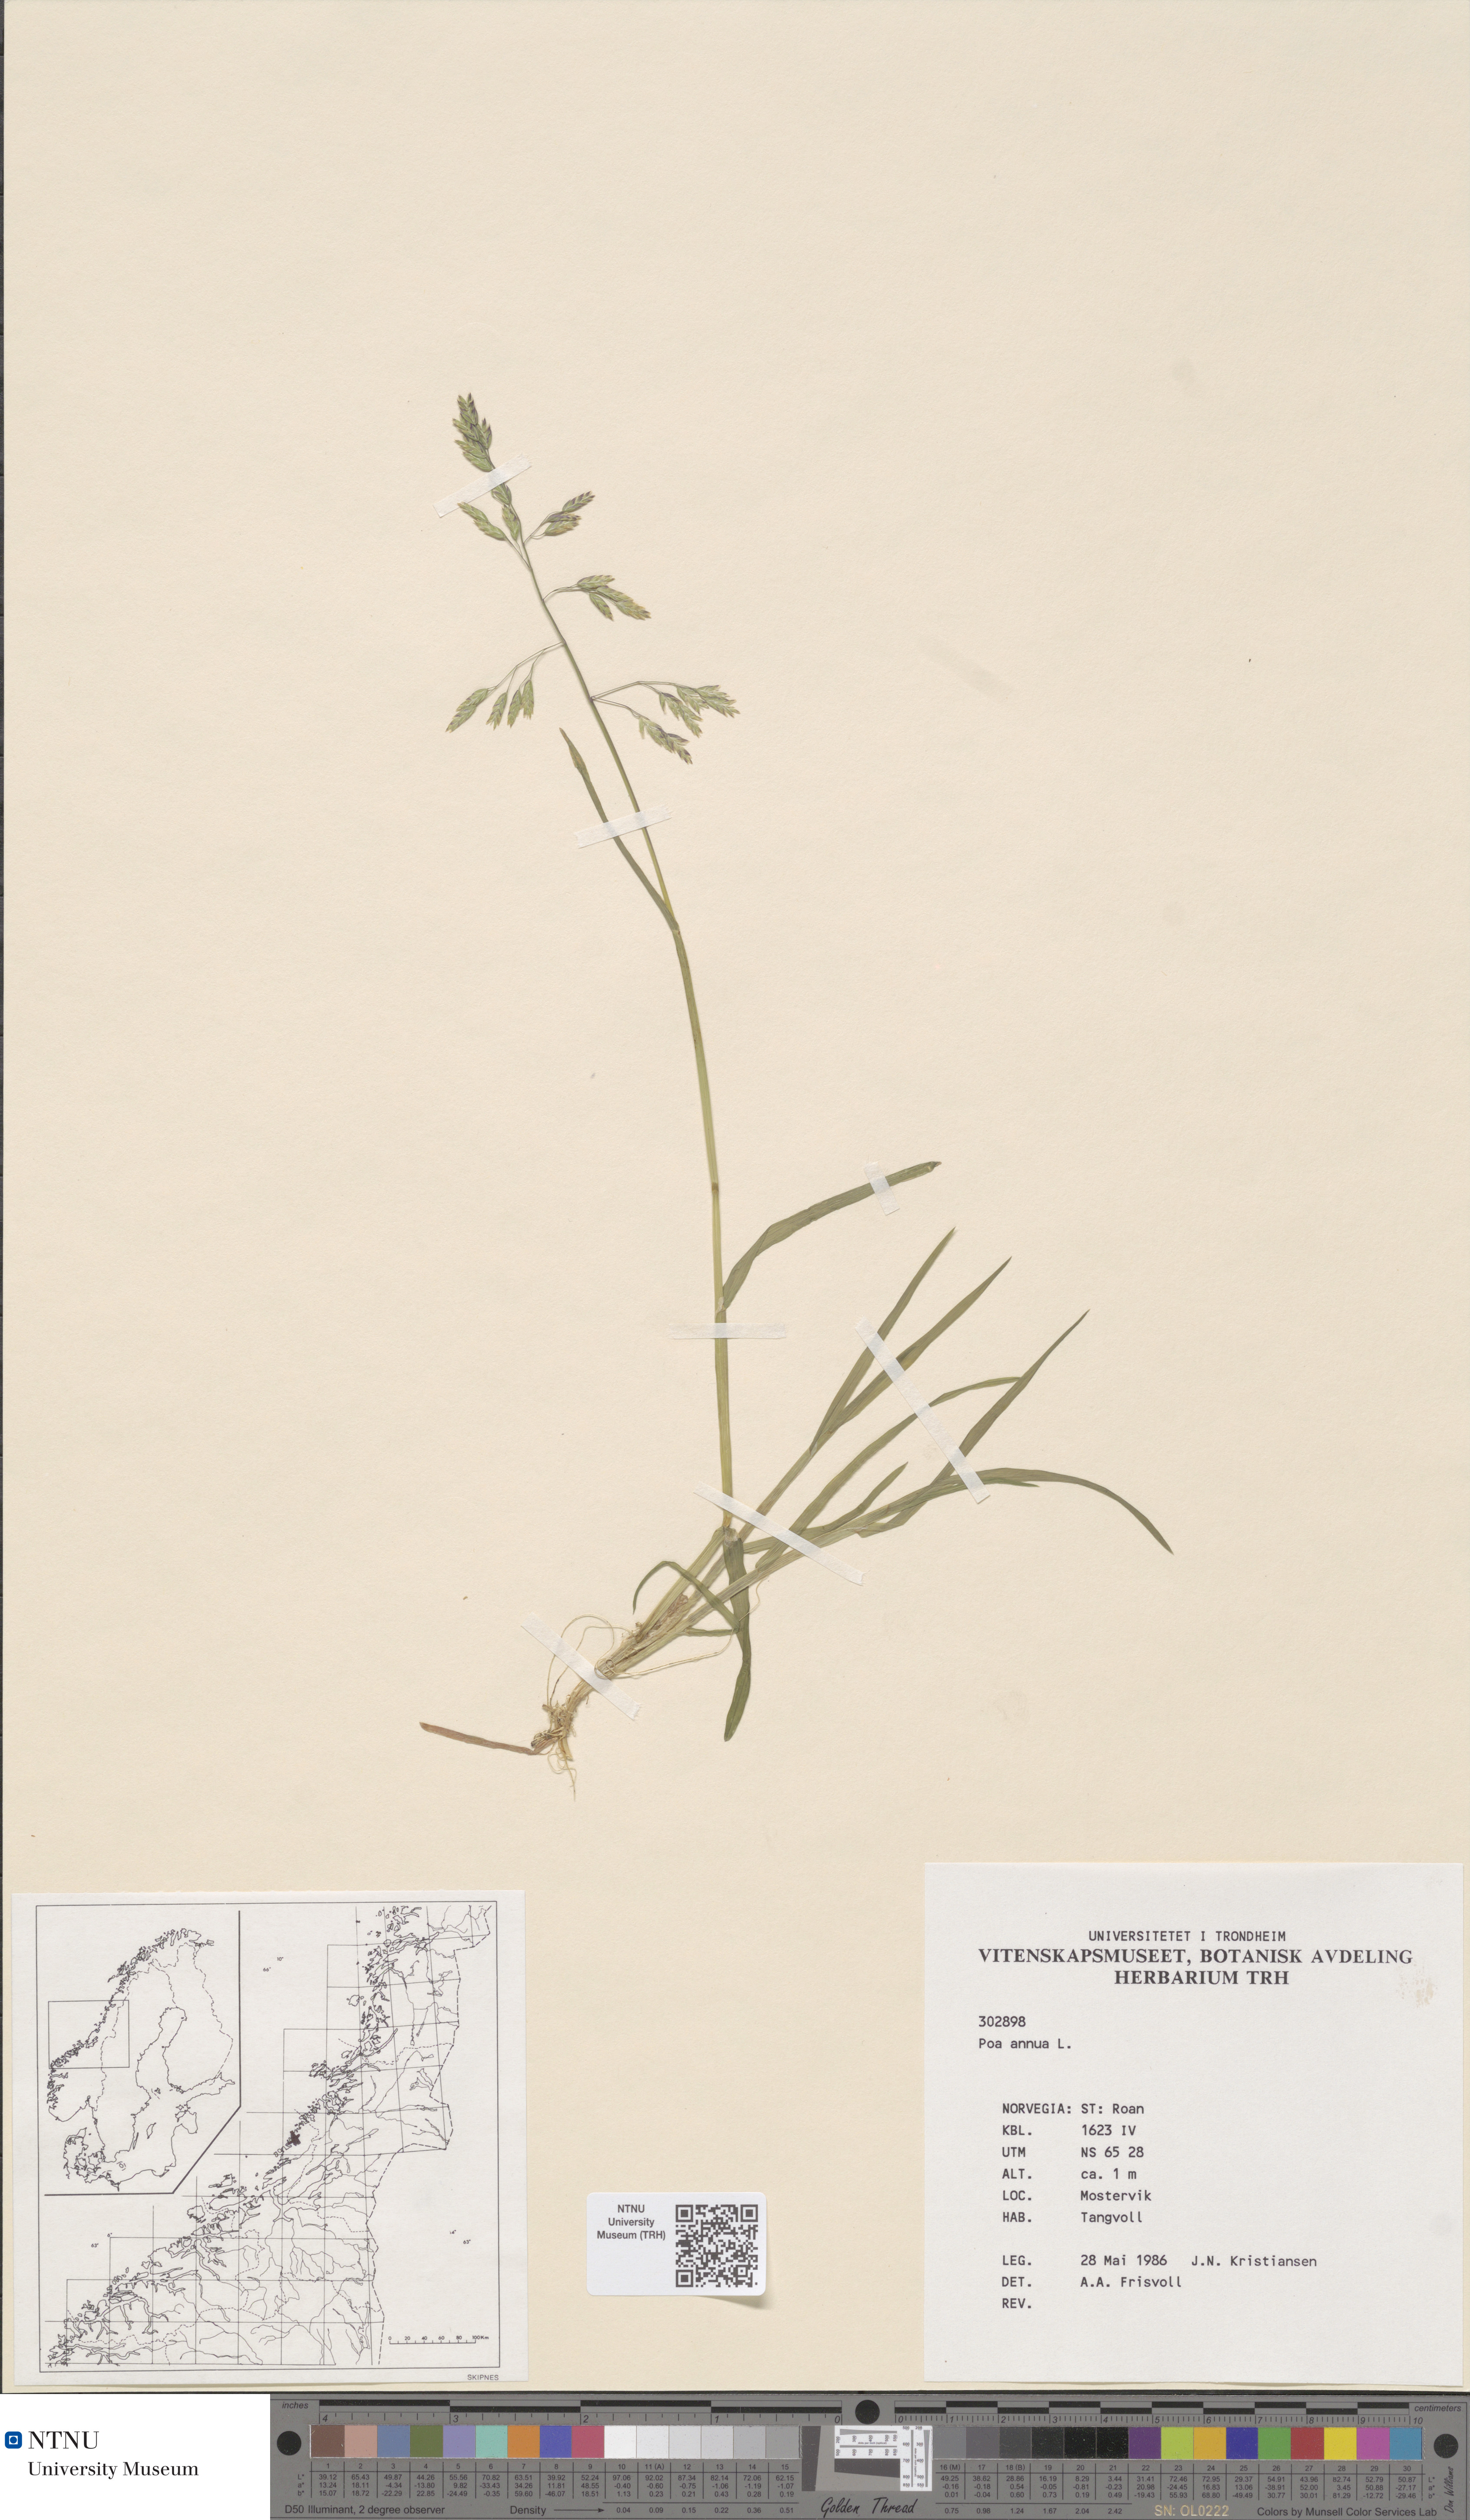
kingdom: Plantae
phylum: Tracheophyta
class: Liliopsida
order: Poales
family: Poaceae
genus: Poa
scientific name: Poa annua
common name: Annual bluegrass
